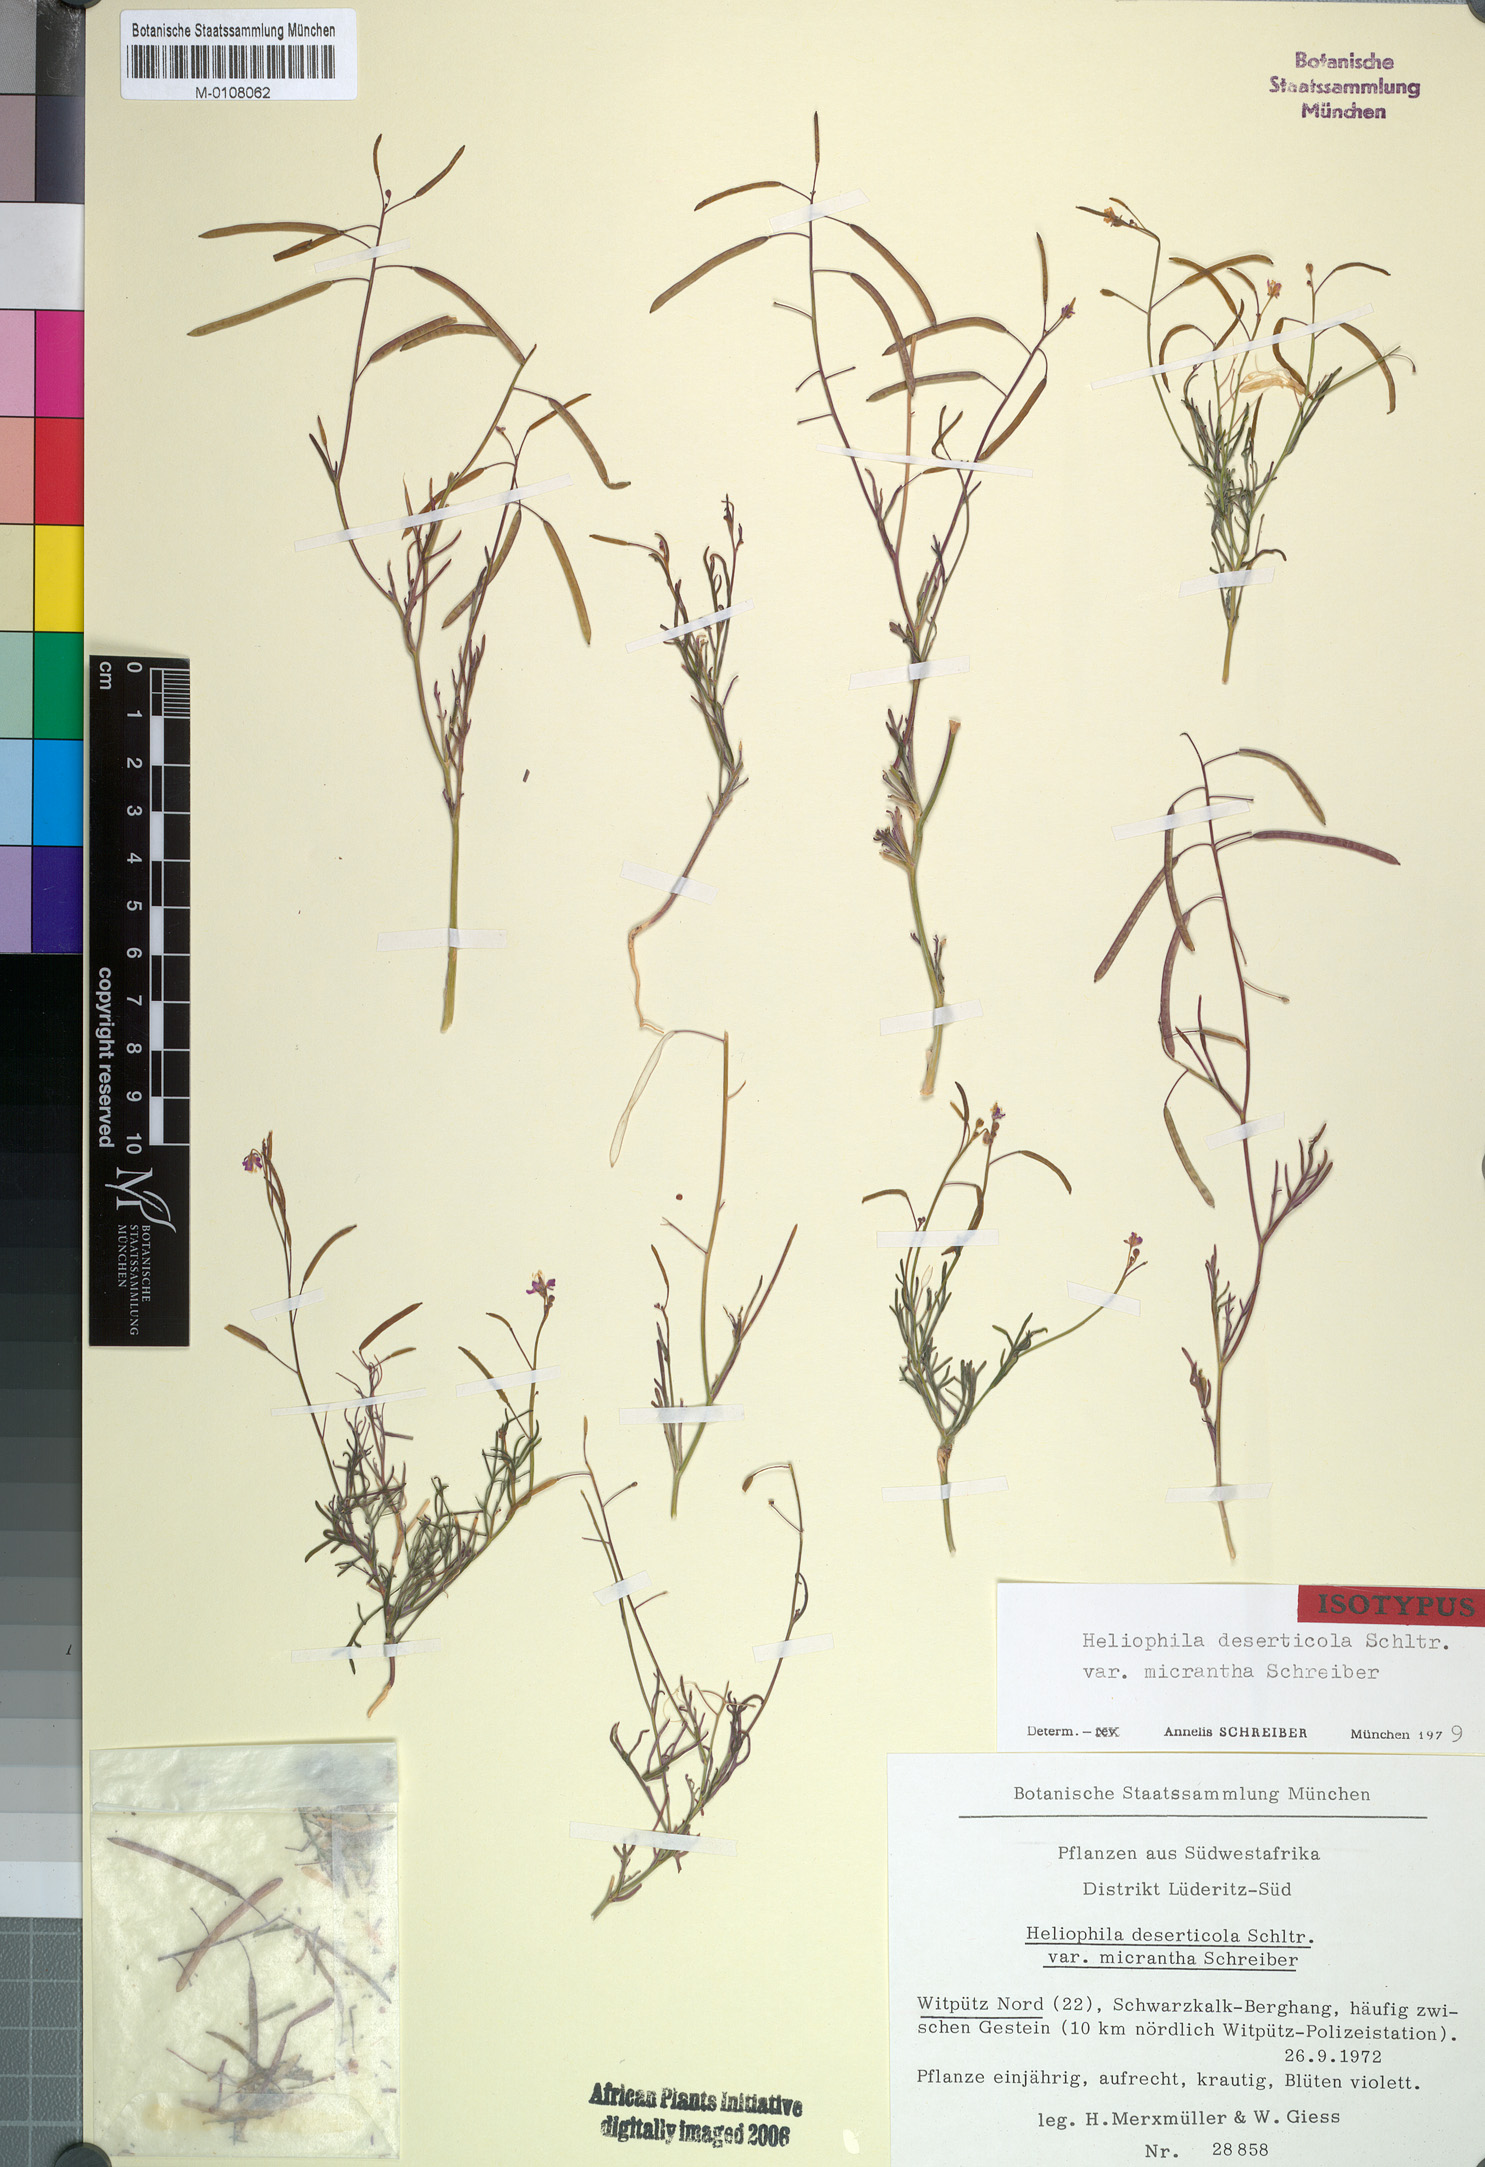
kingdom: Plantae
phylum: Tracheophyta
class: Magnoliopsida
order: Brassicales
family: Brassicaceae
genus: Heliophila
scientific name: Heliophila deserticola
